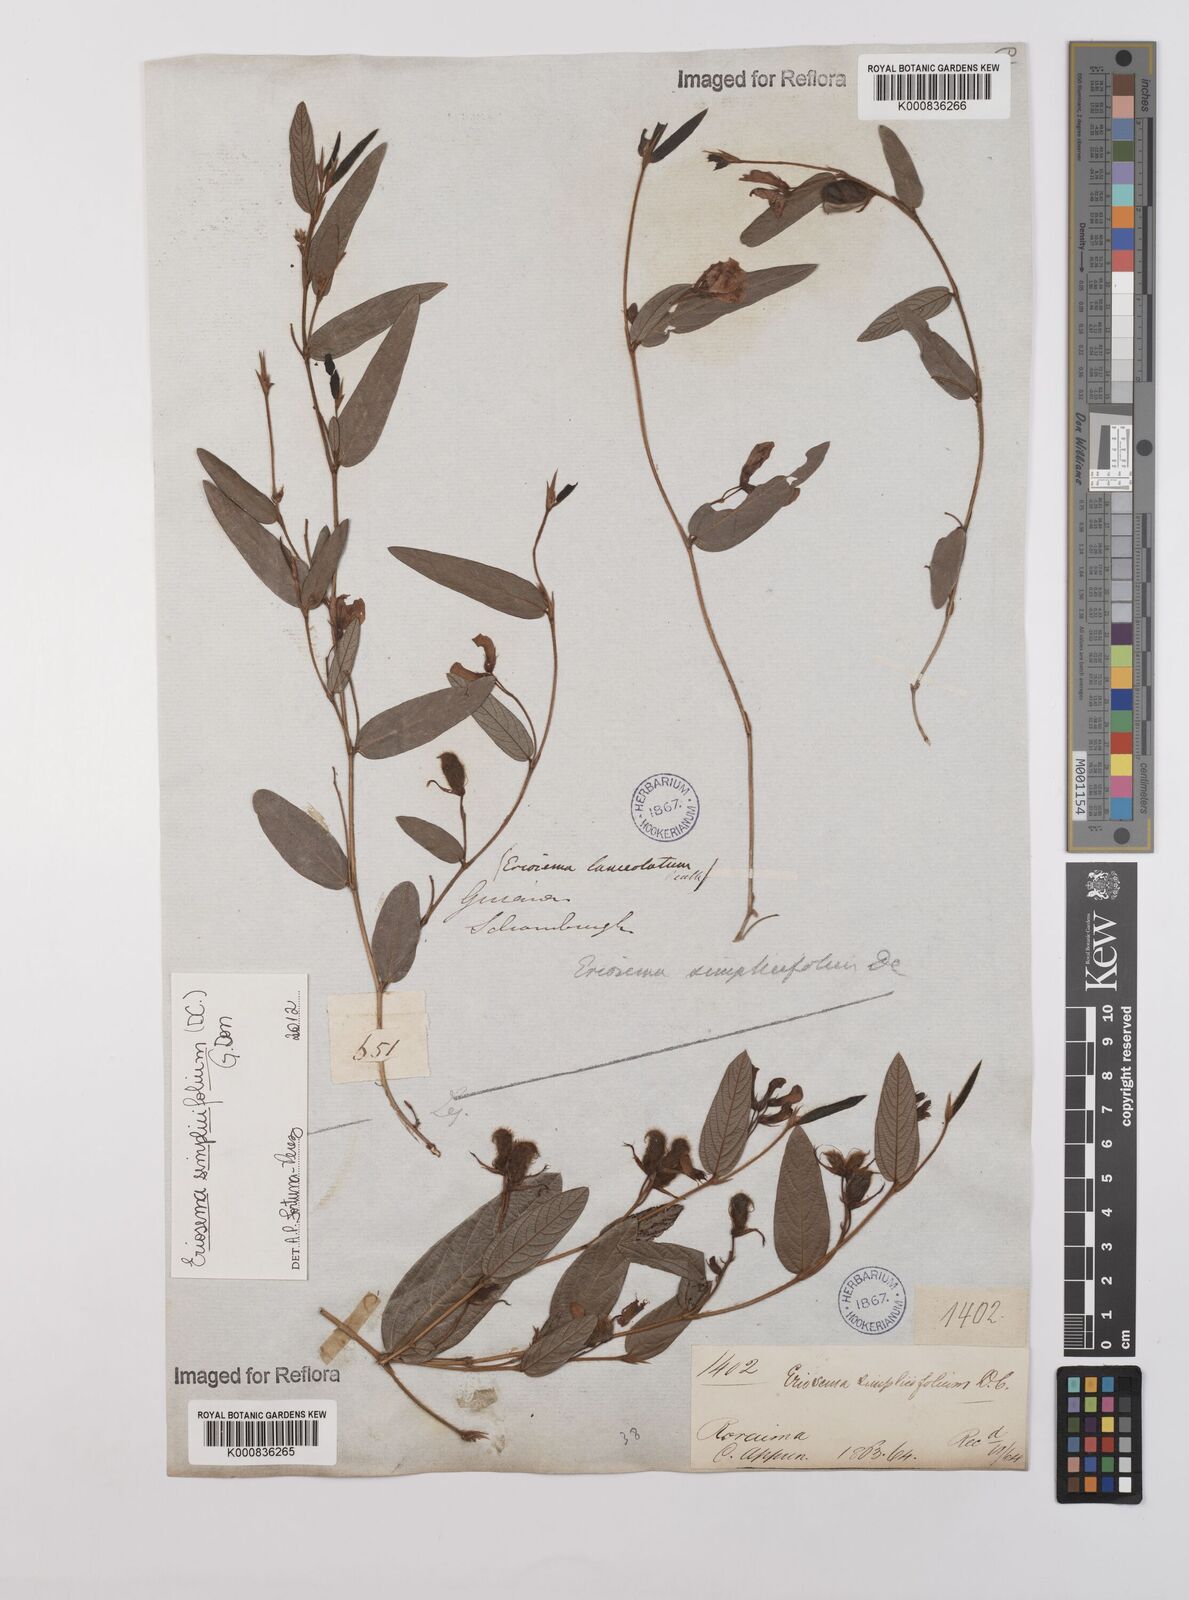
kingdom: Plantae
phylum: Tracheophyta
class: Magnoliopsida
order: Fabales
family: Fabaceae
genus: Eriosema
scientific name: Eriosema simplicifolium
